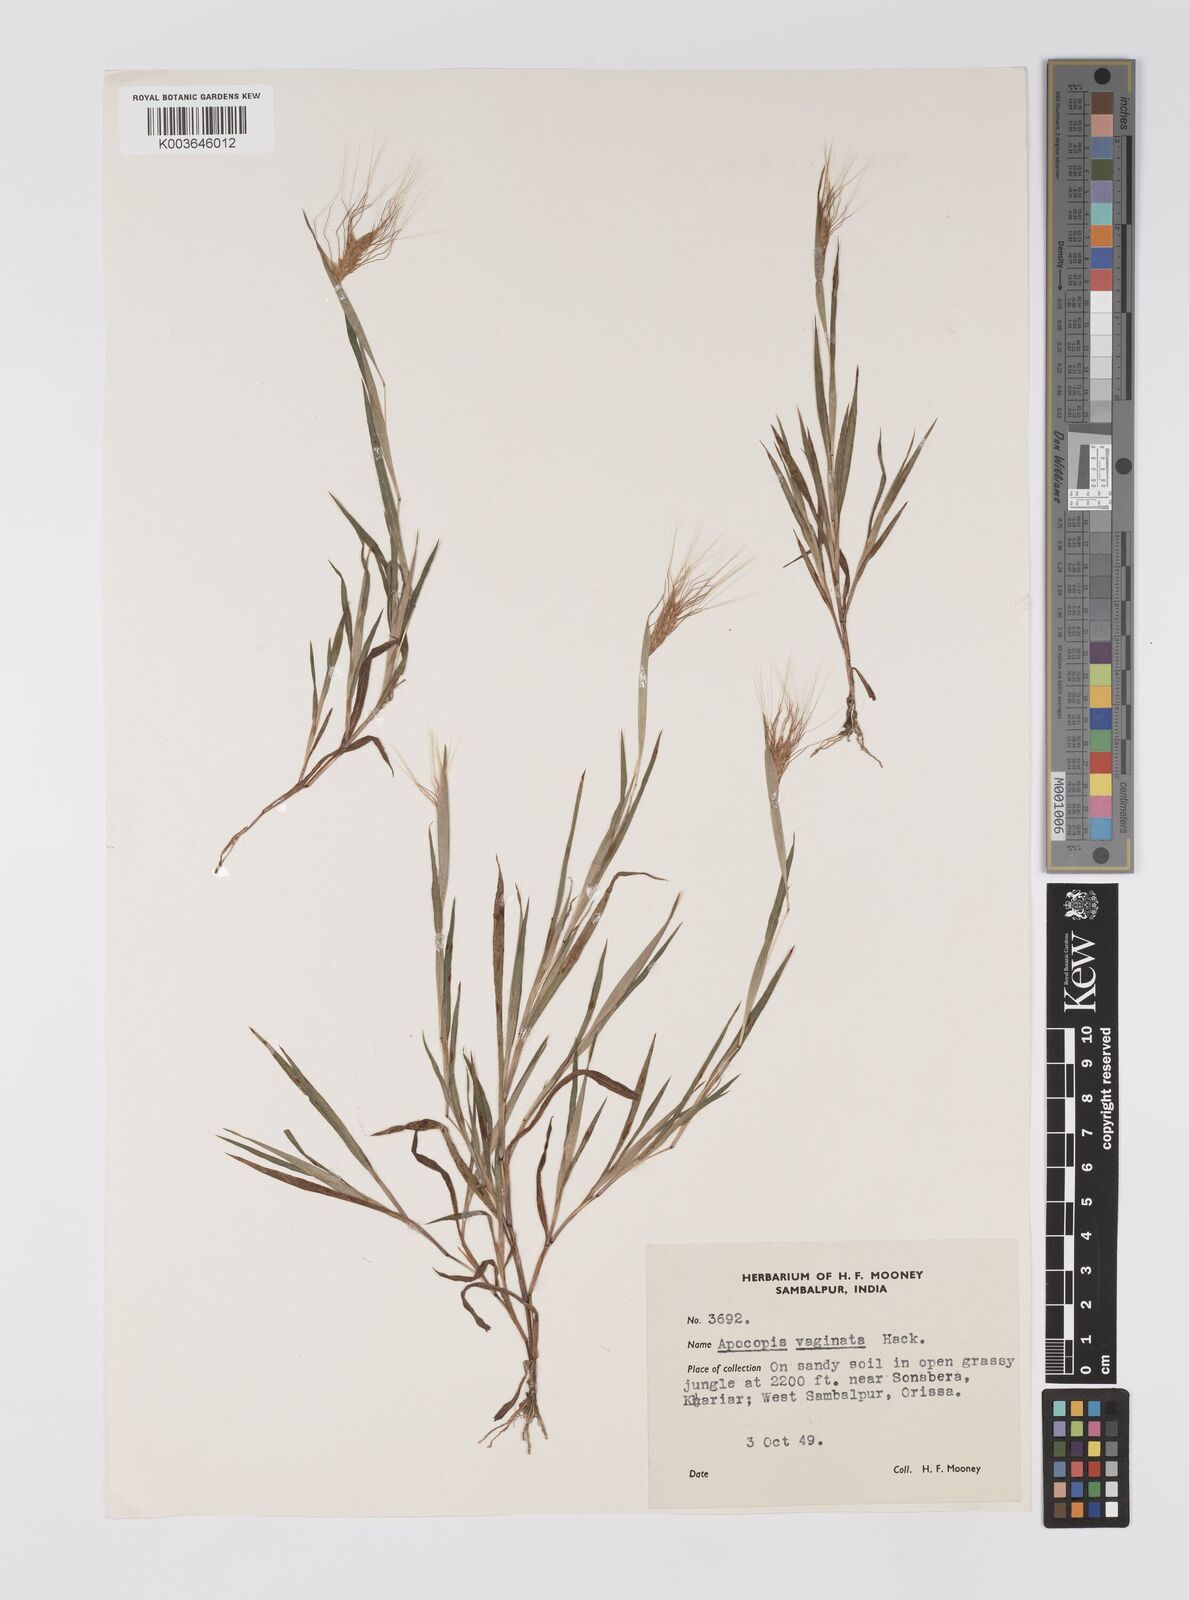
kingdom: Plantae
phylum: Tracheophyta
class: Liliopsida
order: Poales
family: Poaceae
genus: Apocopis
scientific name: Apocopis vaginatus
